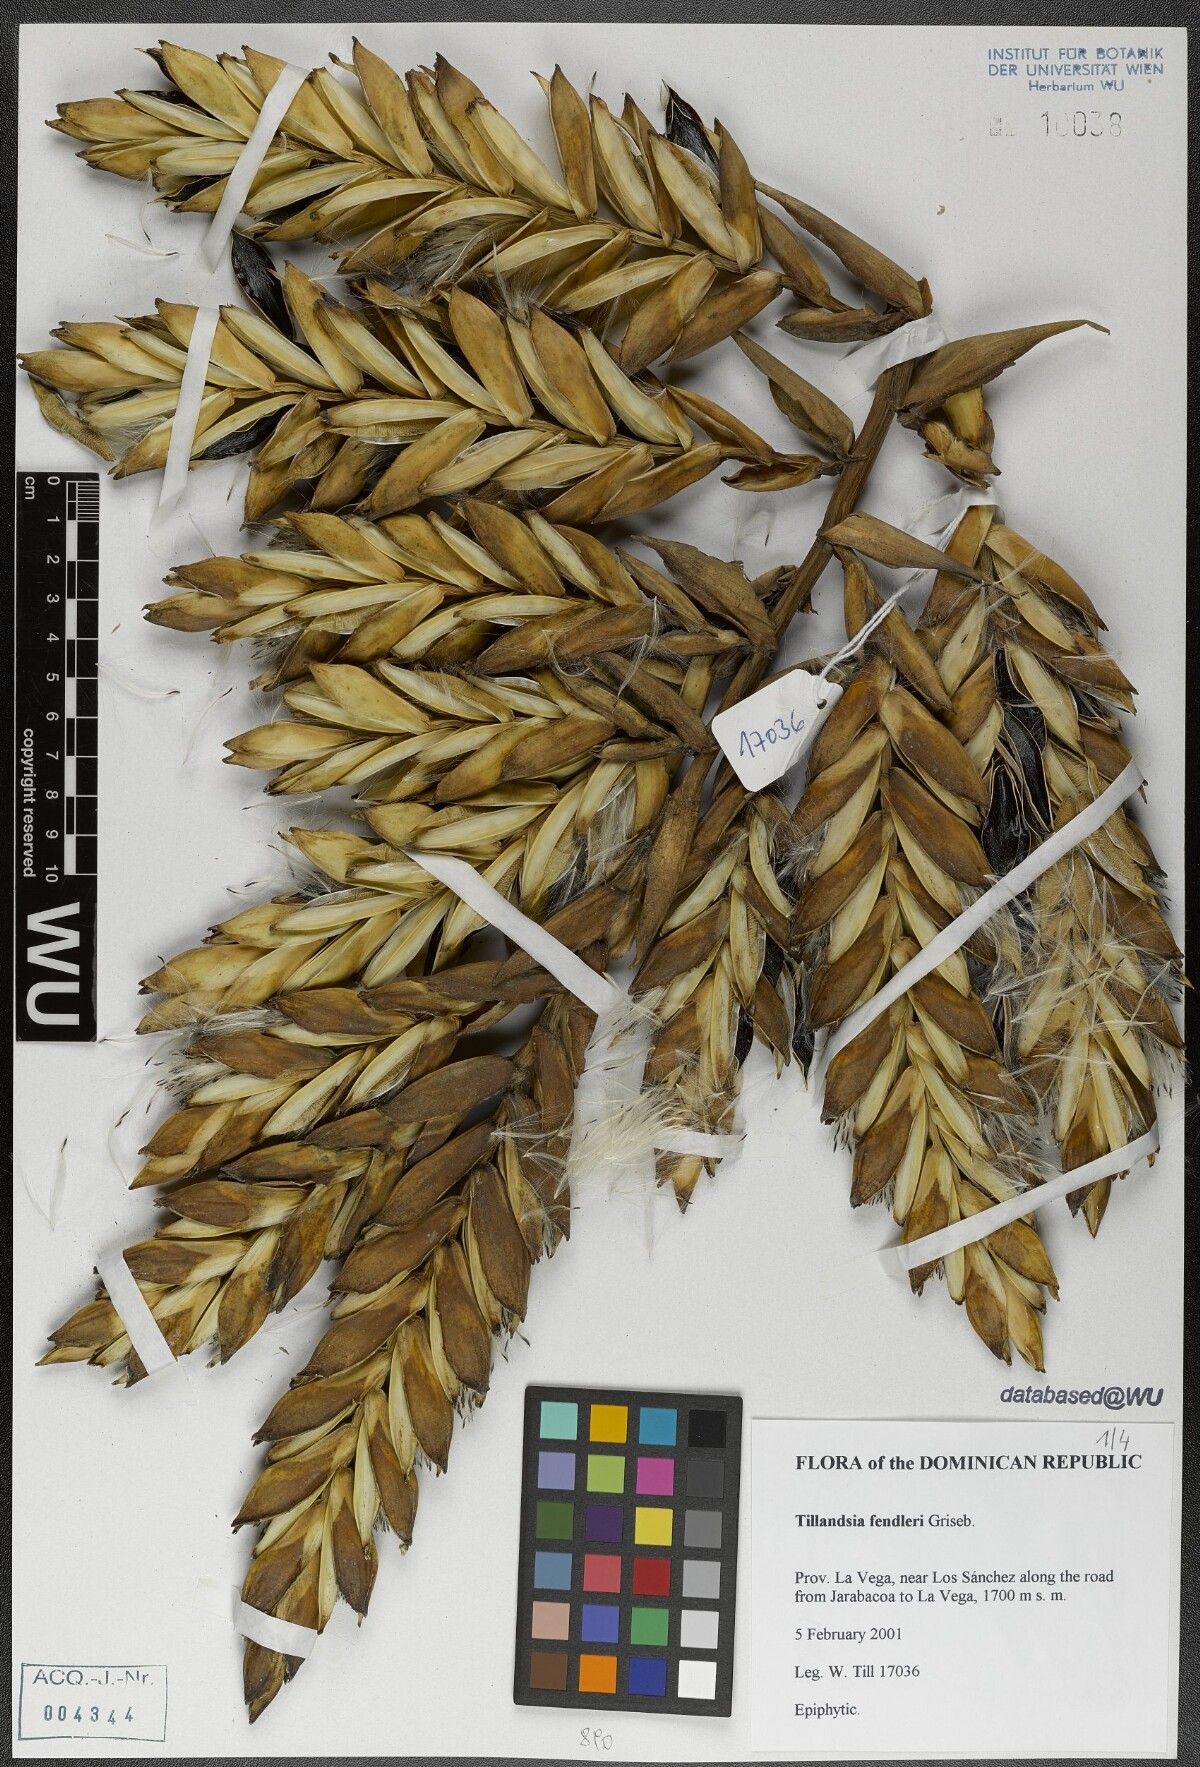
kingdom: Plantae
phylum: Tracheophyta
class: Liliopsida
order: Poales
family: Bromeliaceae
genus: Tillandsia
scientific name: Tillandsia fendleri
